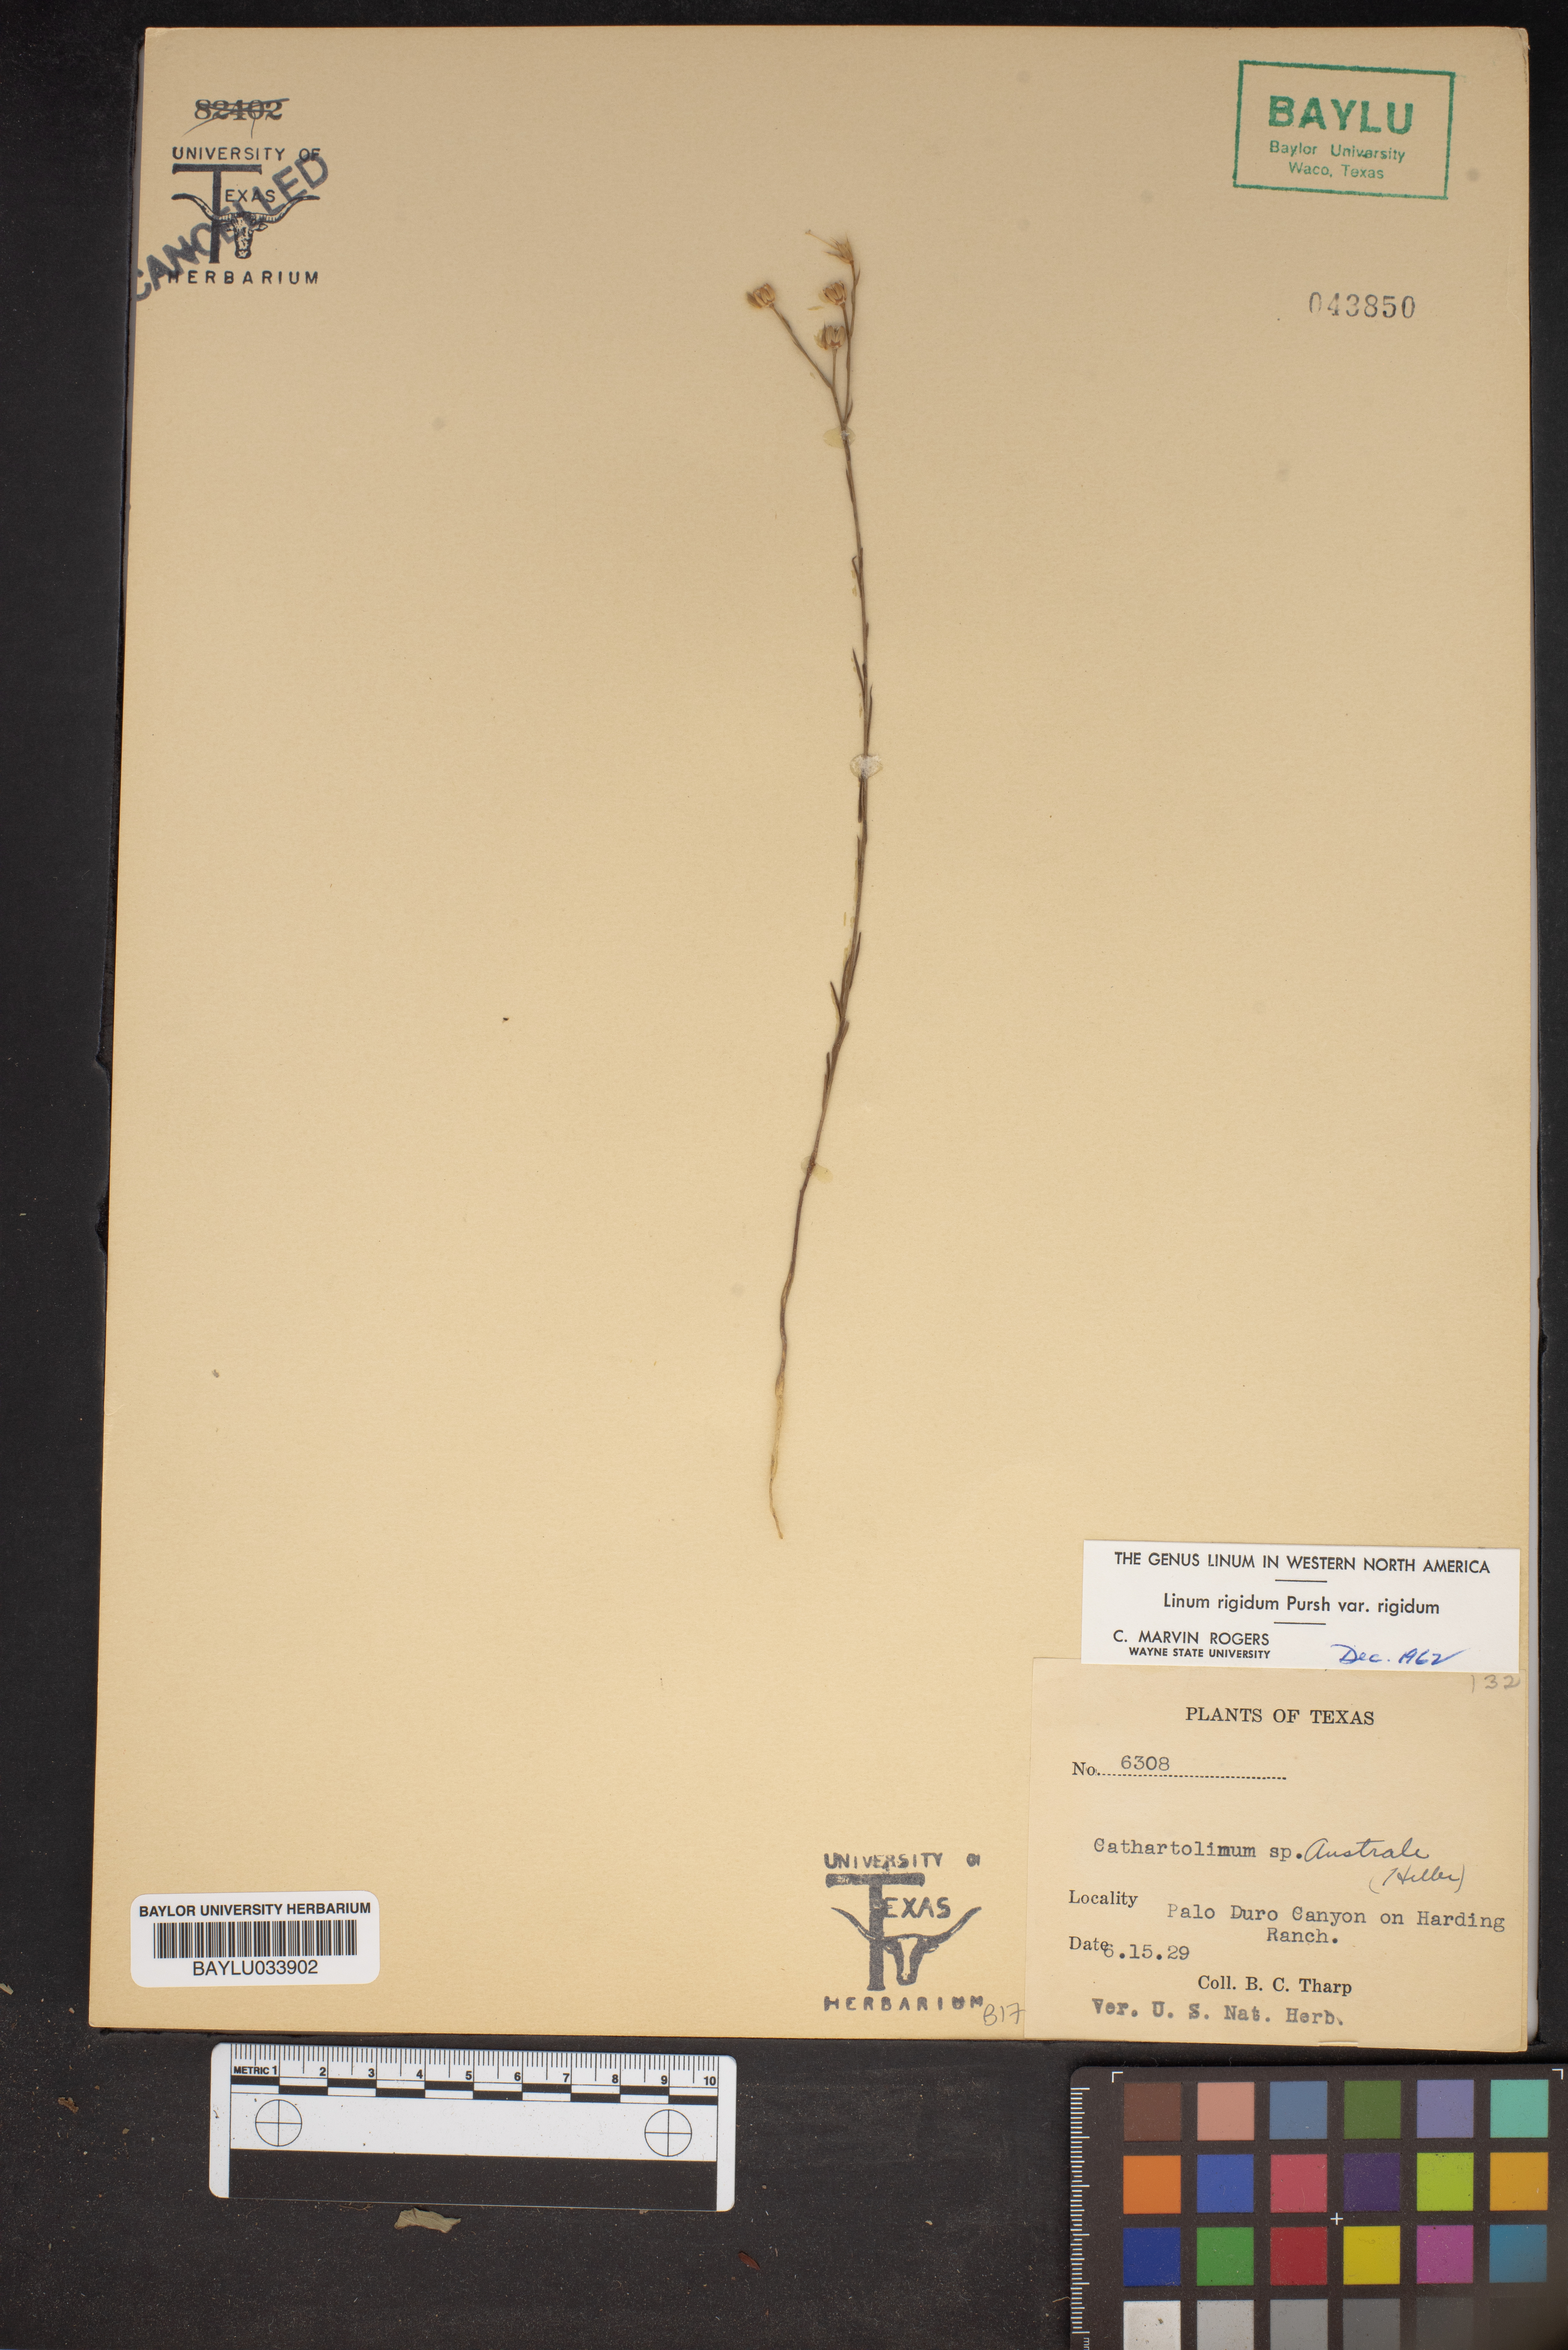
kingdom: Plantae
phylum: Tracheophyta
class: Magnoliopsida
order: Malpighiales
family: Linaceae
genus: Linum
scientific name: Linum rigidum
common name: Stiff-stem flax
